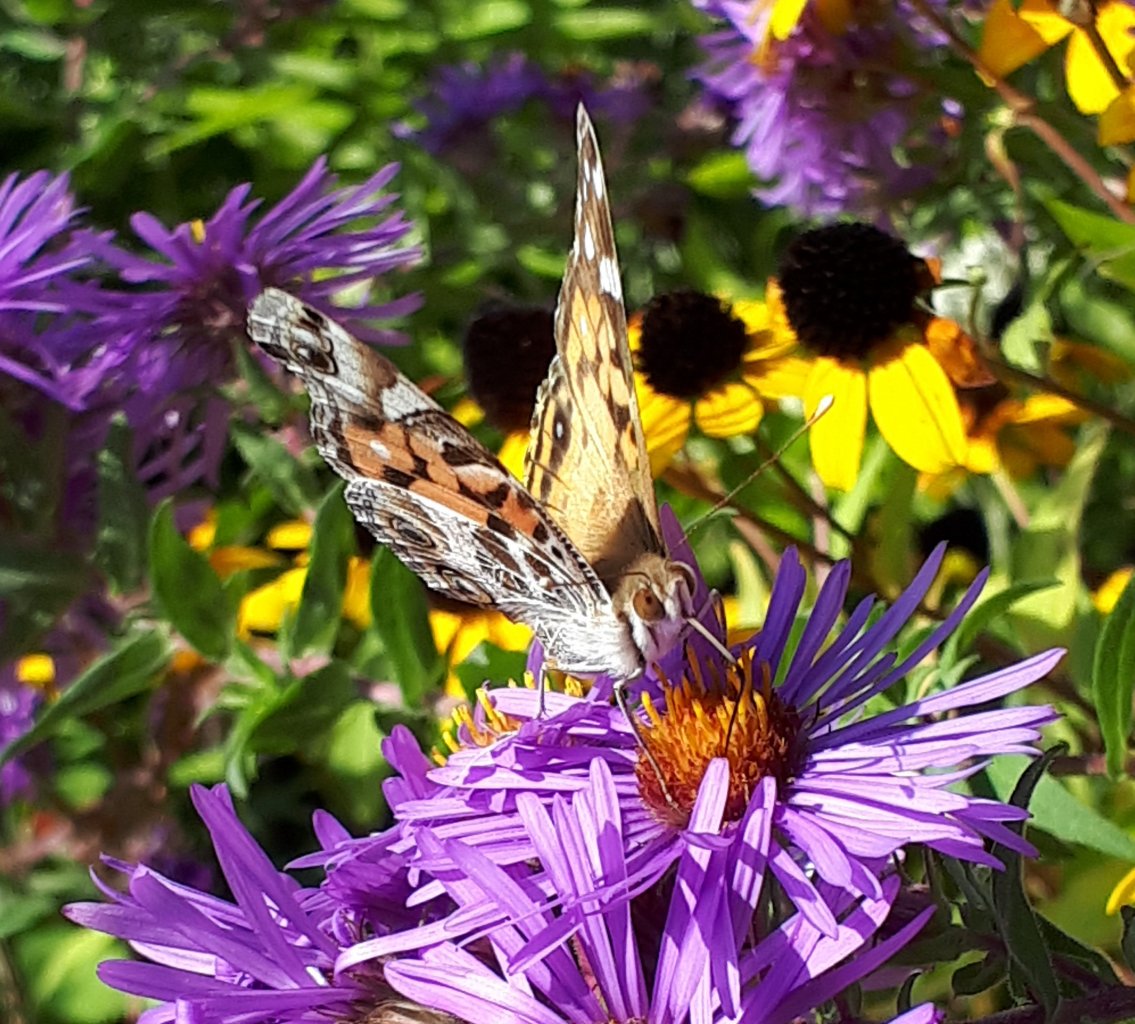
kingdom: Animalia
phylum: Arthropoda
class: Insecta
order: Lepidoptera
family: Nymphalidae
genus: Vanessa
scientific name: Vanessa virginiensis
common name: American Lady
